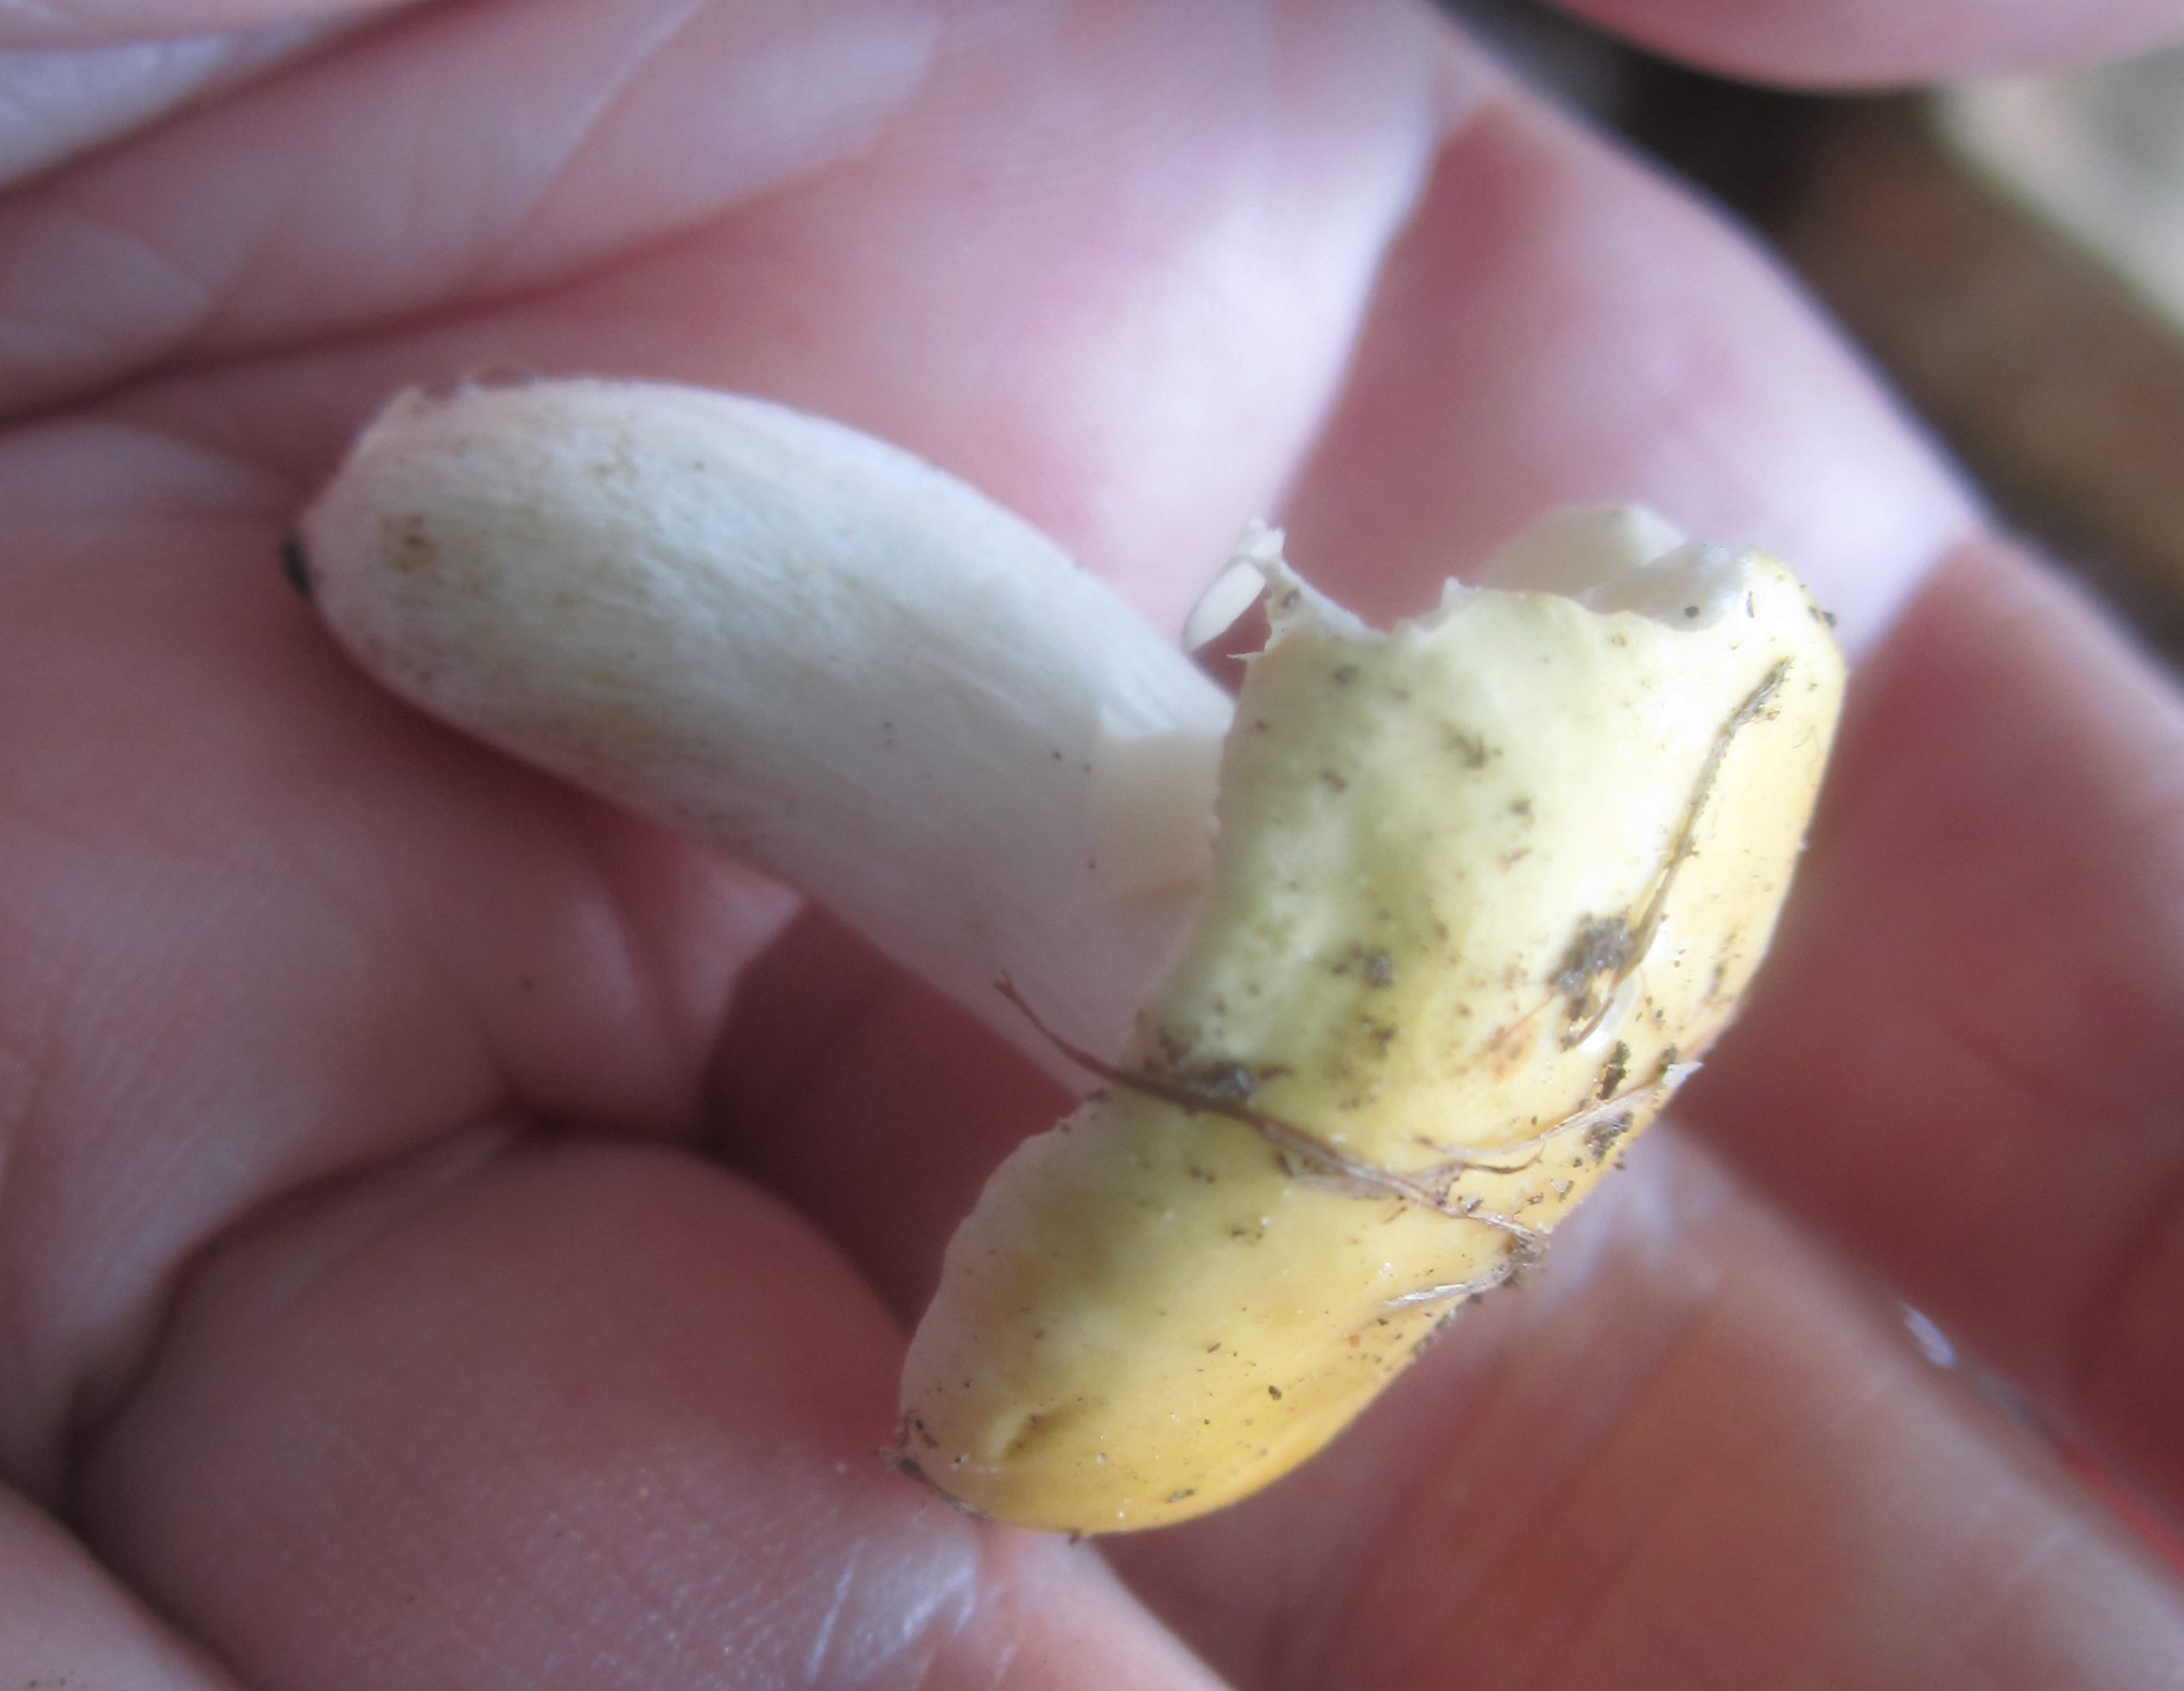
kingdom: Fungi
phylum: Basidiomycota
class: Agaricomycetes
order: Russulales
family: Russulaceae
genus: Russula
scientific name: Russula risigallina
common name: abrikos-skørhat
